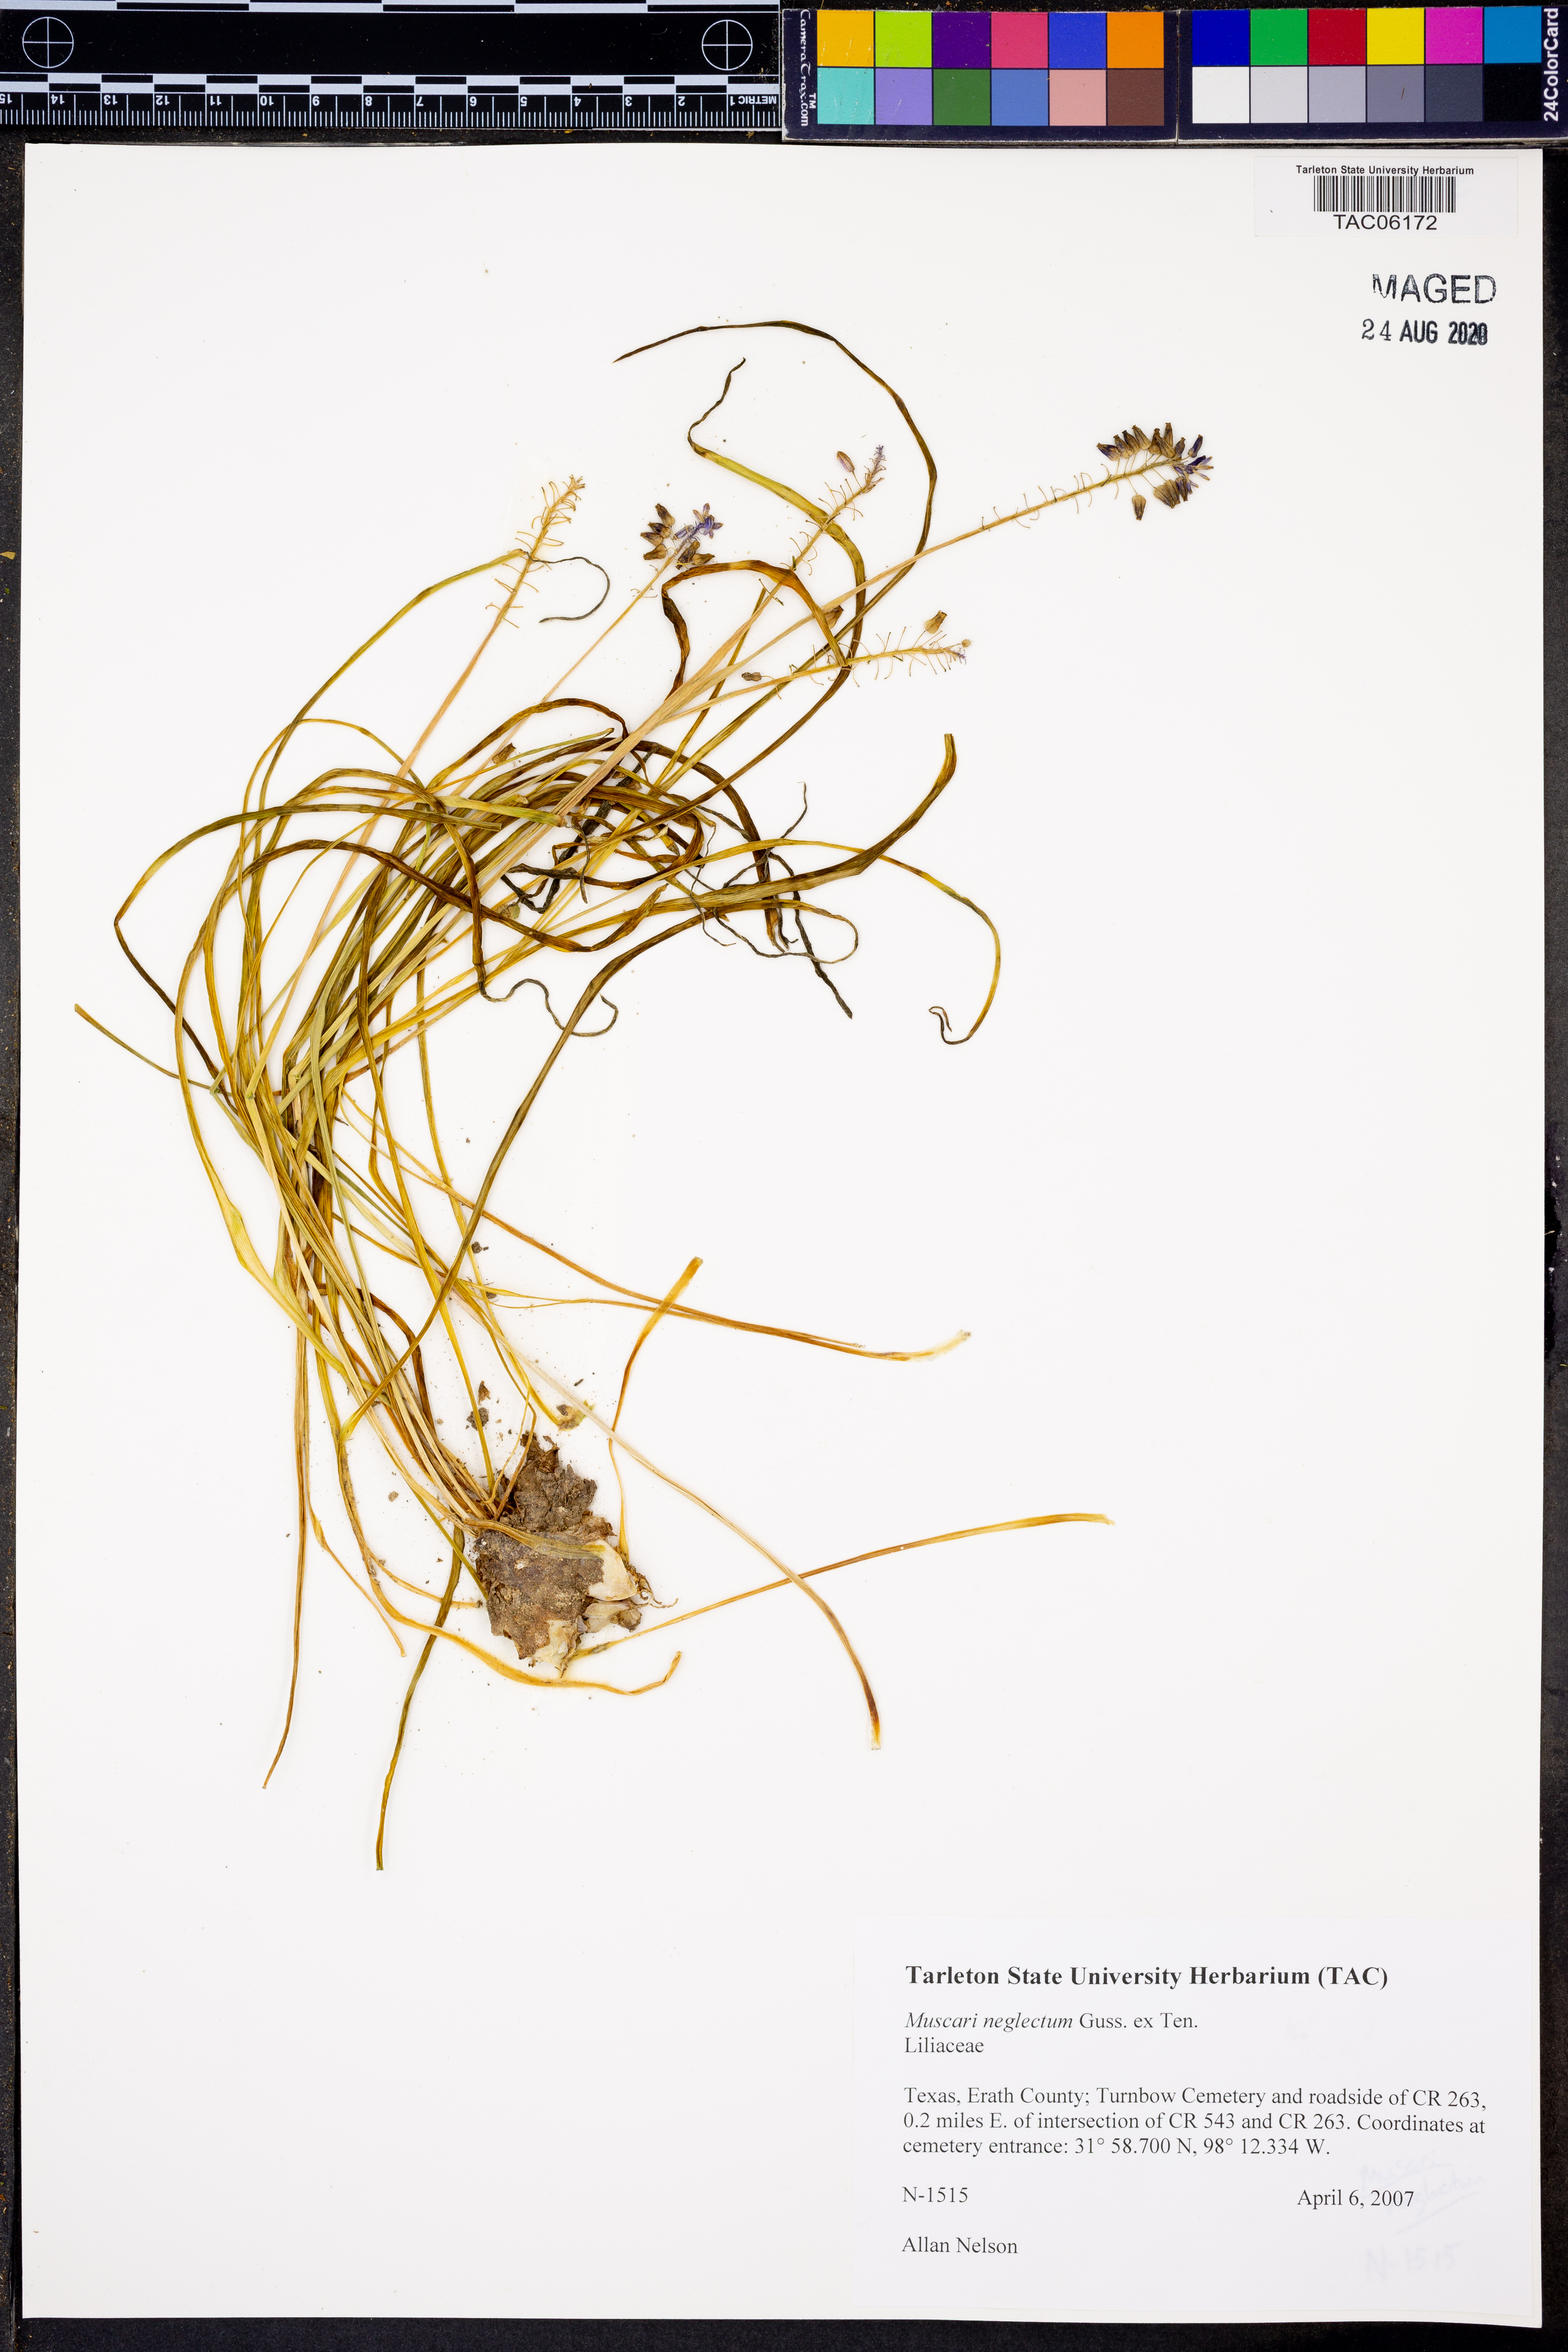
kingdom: Plantae
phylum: Tracheophyta
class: Liliopsida
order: Asparagales
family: Asparagaceae
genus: Muscari
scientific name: Muscari neglectum
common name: Grape-hyacinth
